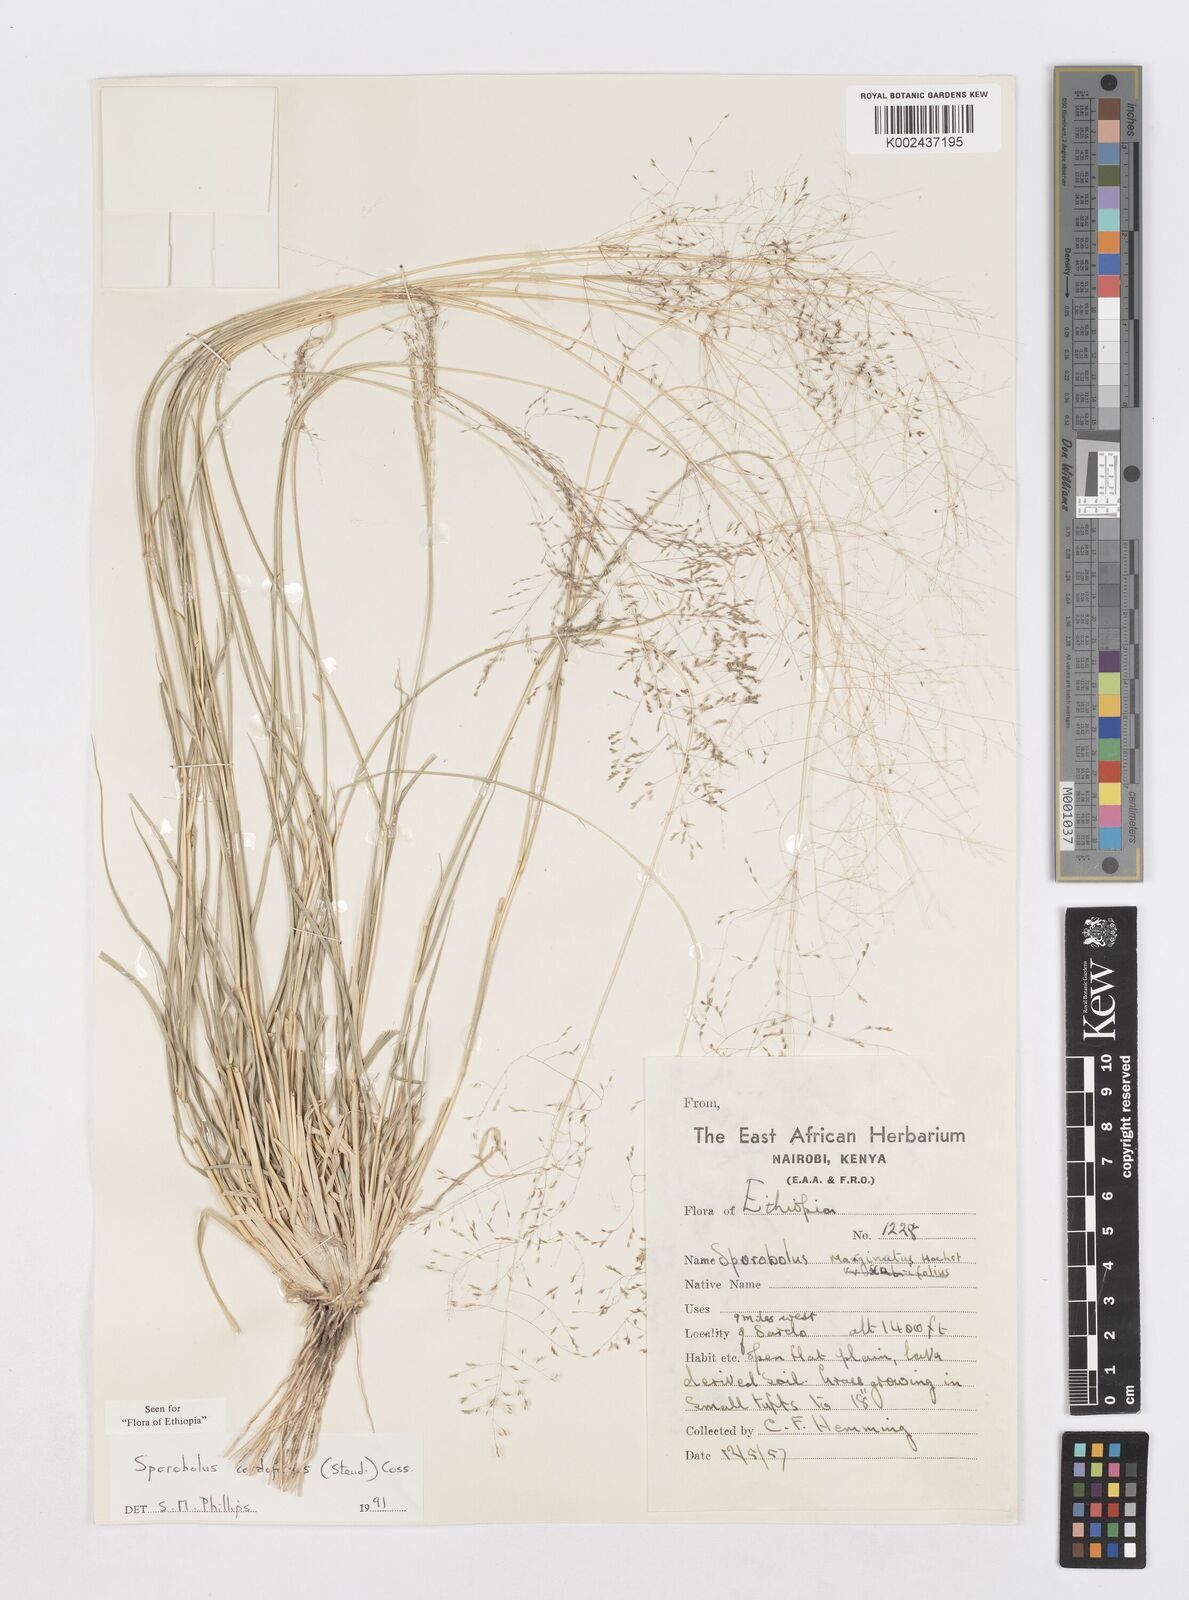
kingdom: Plantae
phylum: Tracheophyta
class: Liliopsida
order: Poales
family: Poaceae
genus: Sporobolus
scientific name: Sporobolus cordofanus
